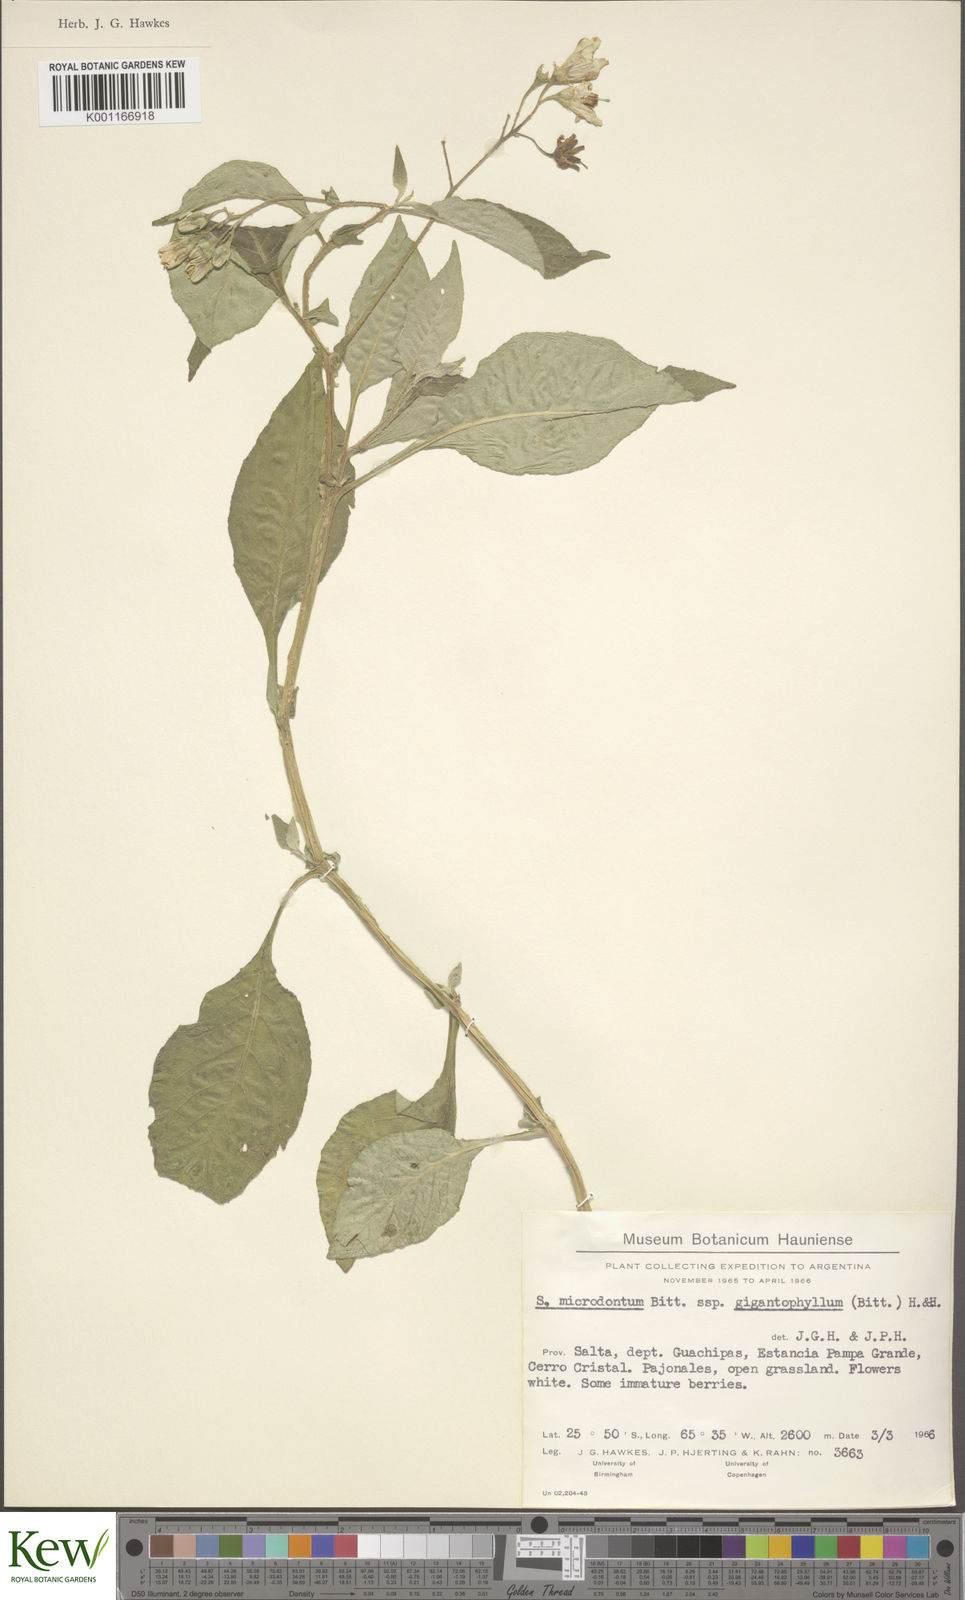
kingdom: Plantae
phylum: Tracheophyta
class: Magnoliopsida
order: Solanales
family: Solanaceae
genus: Solanum
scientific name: Solanum microdontum
